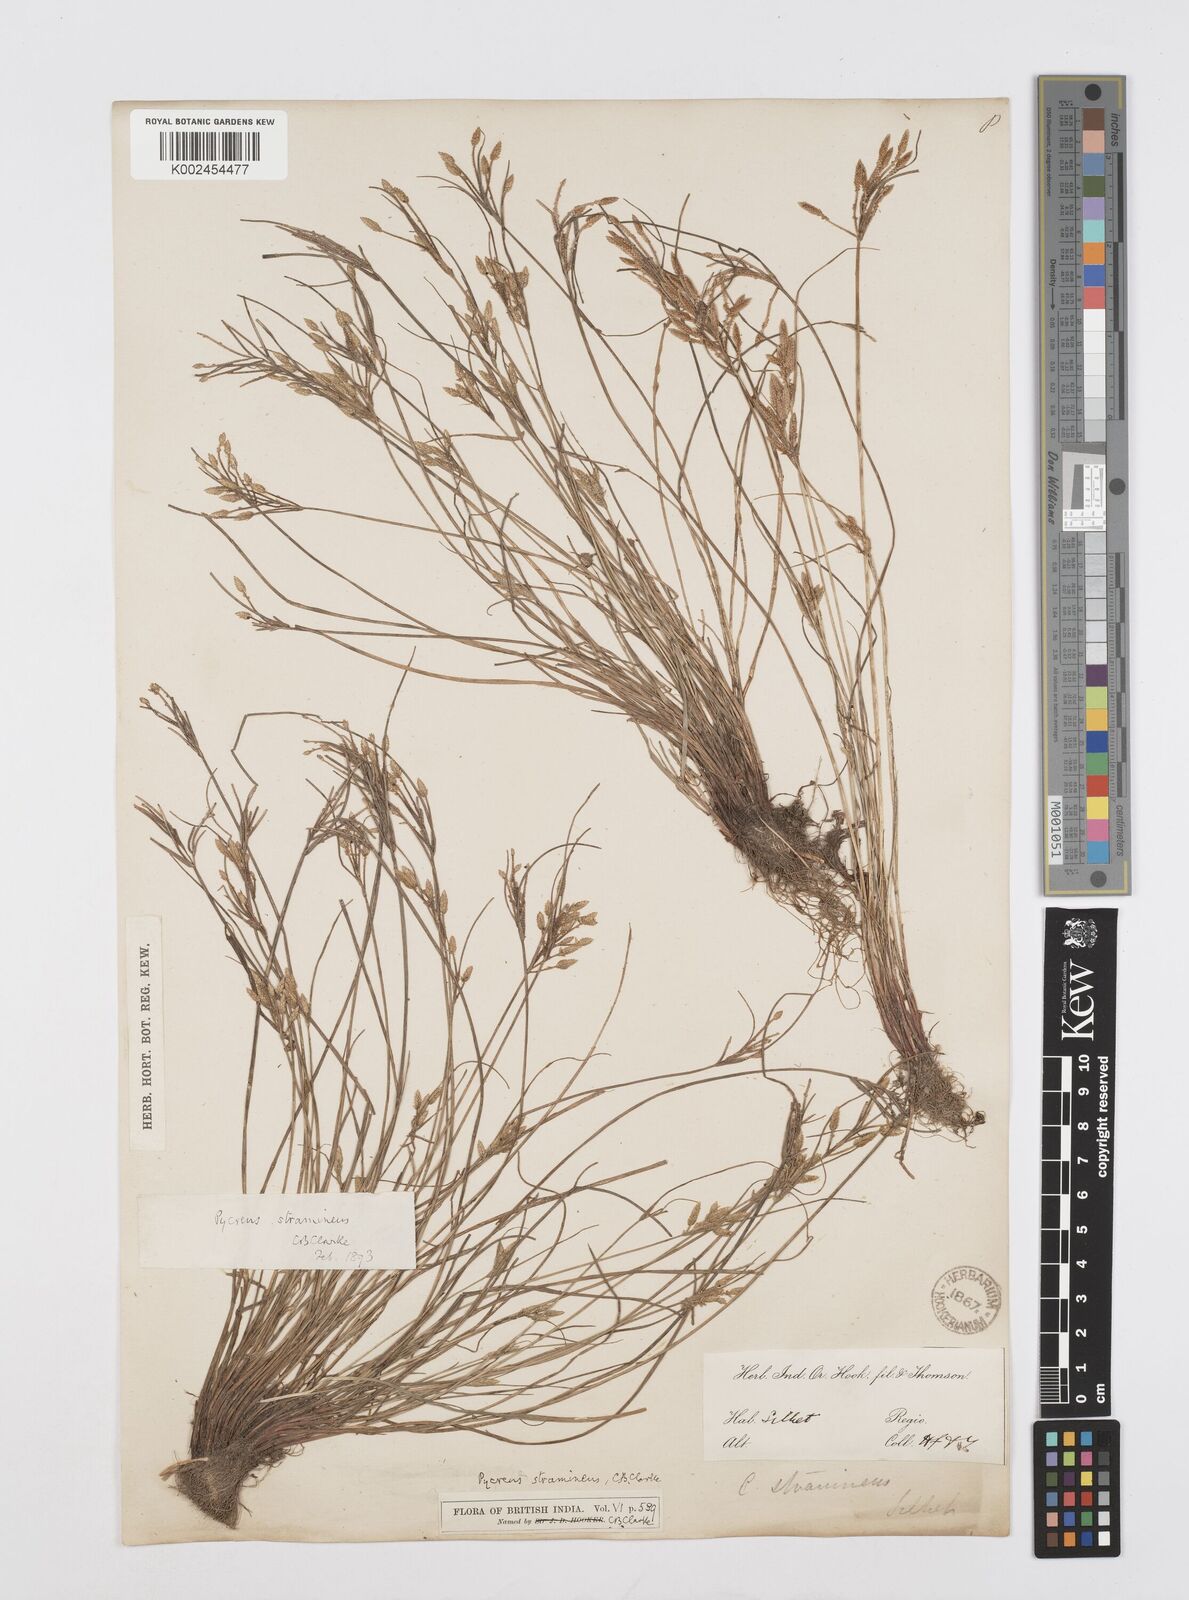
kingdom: Plantae
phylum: Tracheophyta
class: Liliopsida
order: Poales
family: Cyperaceae
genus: Cyperus
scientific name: Cyperus substramineus
